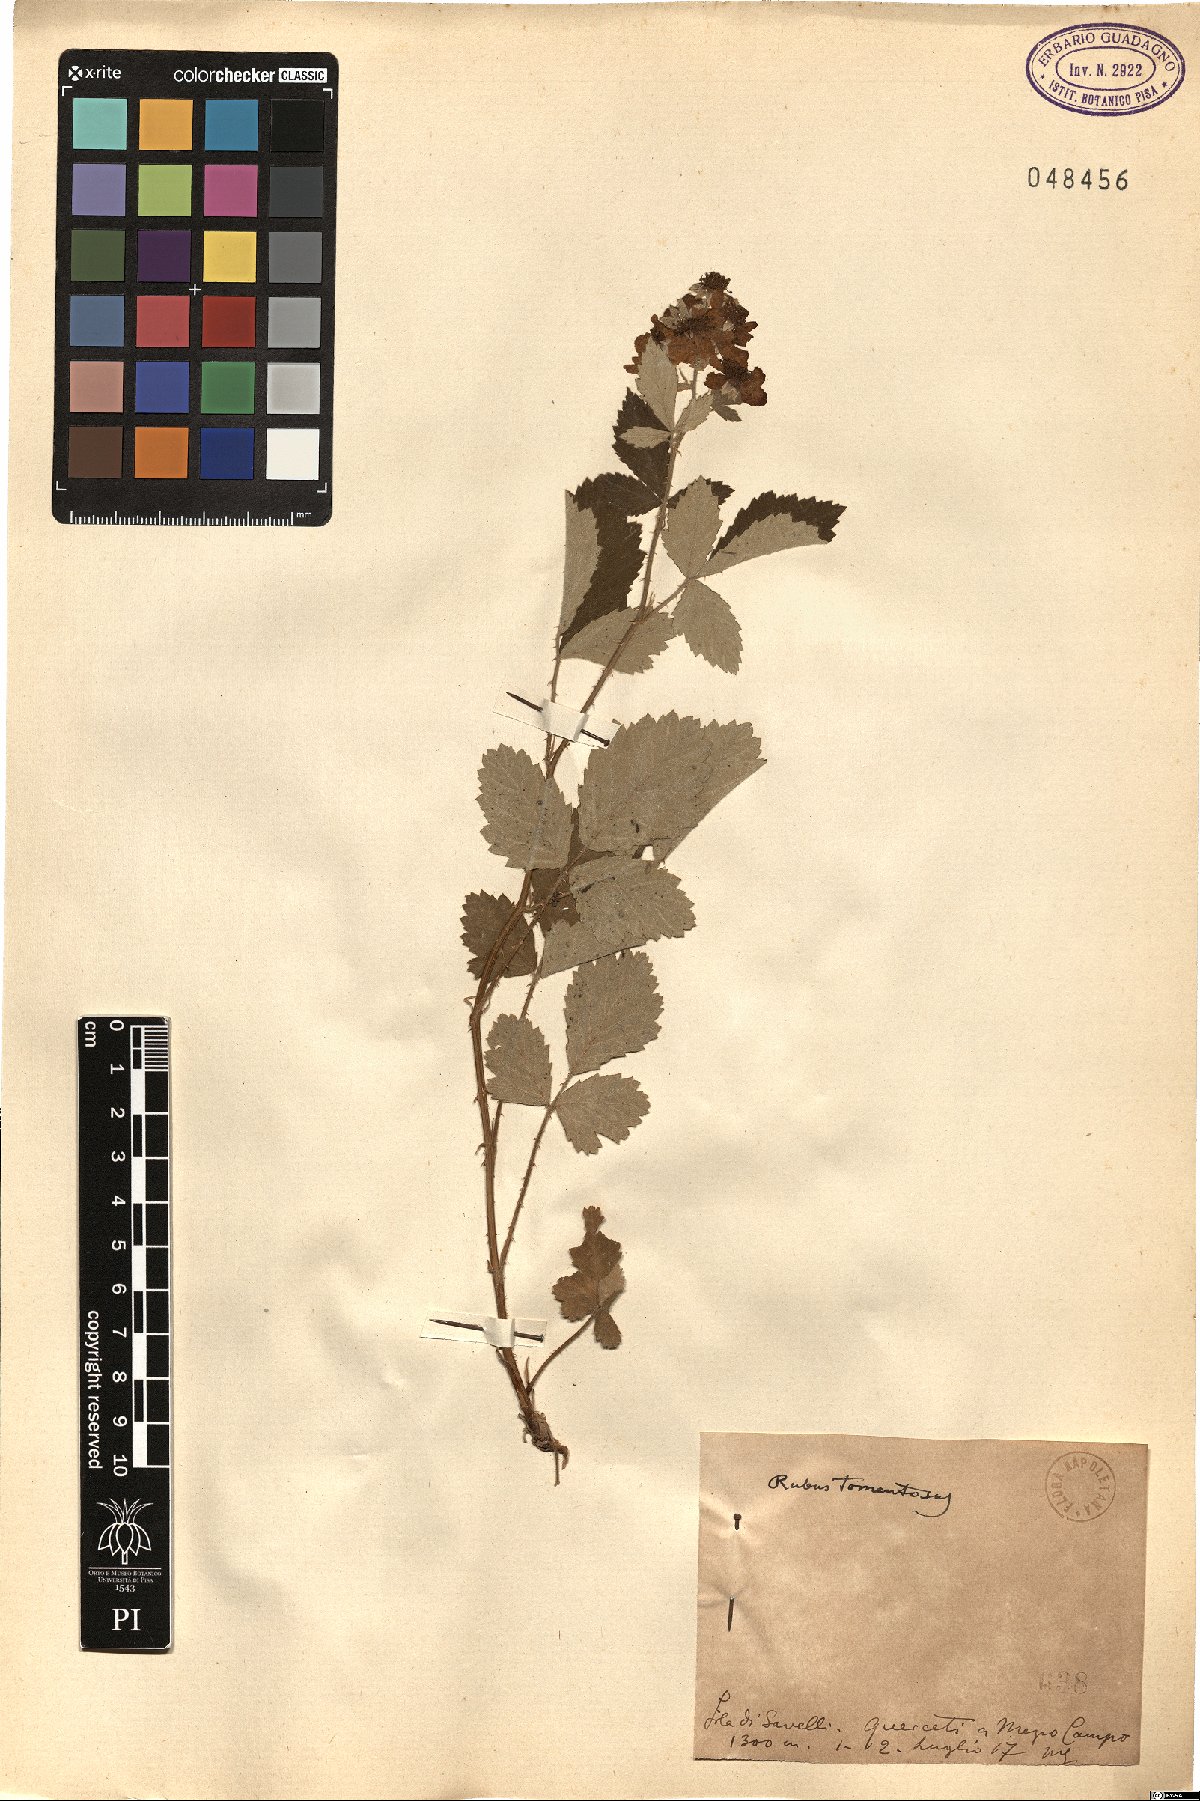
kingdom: Plantae
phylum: Tracheophyta
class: Magnoliopsida
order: Rosales
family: Rosaceae
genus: Rubus
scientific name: Rubus occidentalis
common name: Black raspberry
